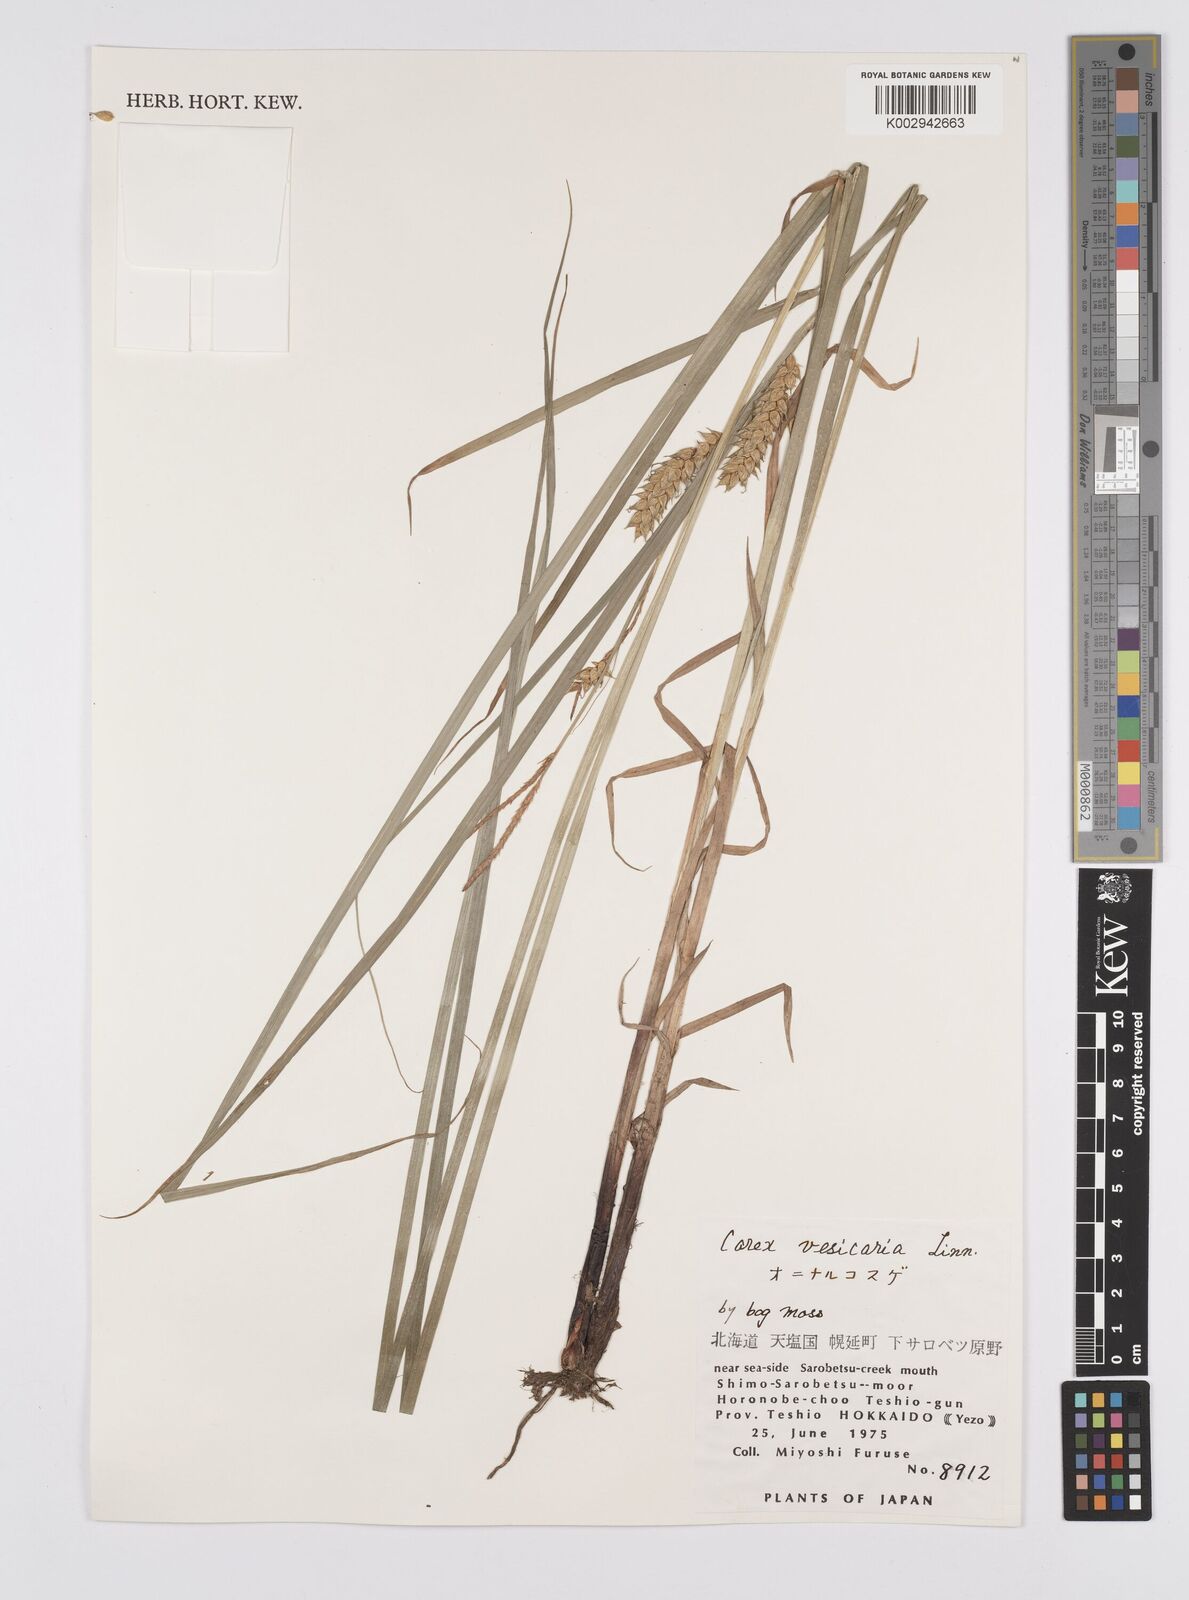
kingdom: Plantae
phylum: Tracheophyta
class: Liliopsida
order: Poales
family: Cyperaceae
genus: Carex
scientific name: Carex vesicaria
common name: Bladder-sedge
